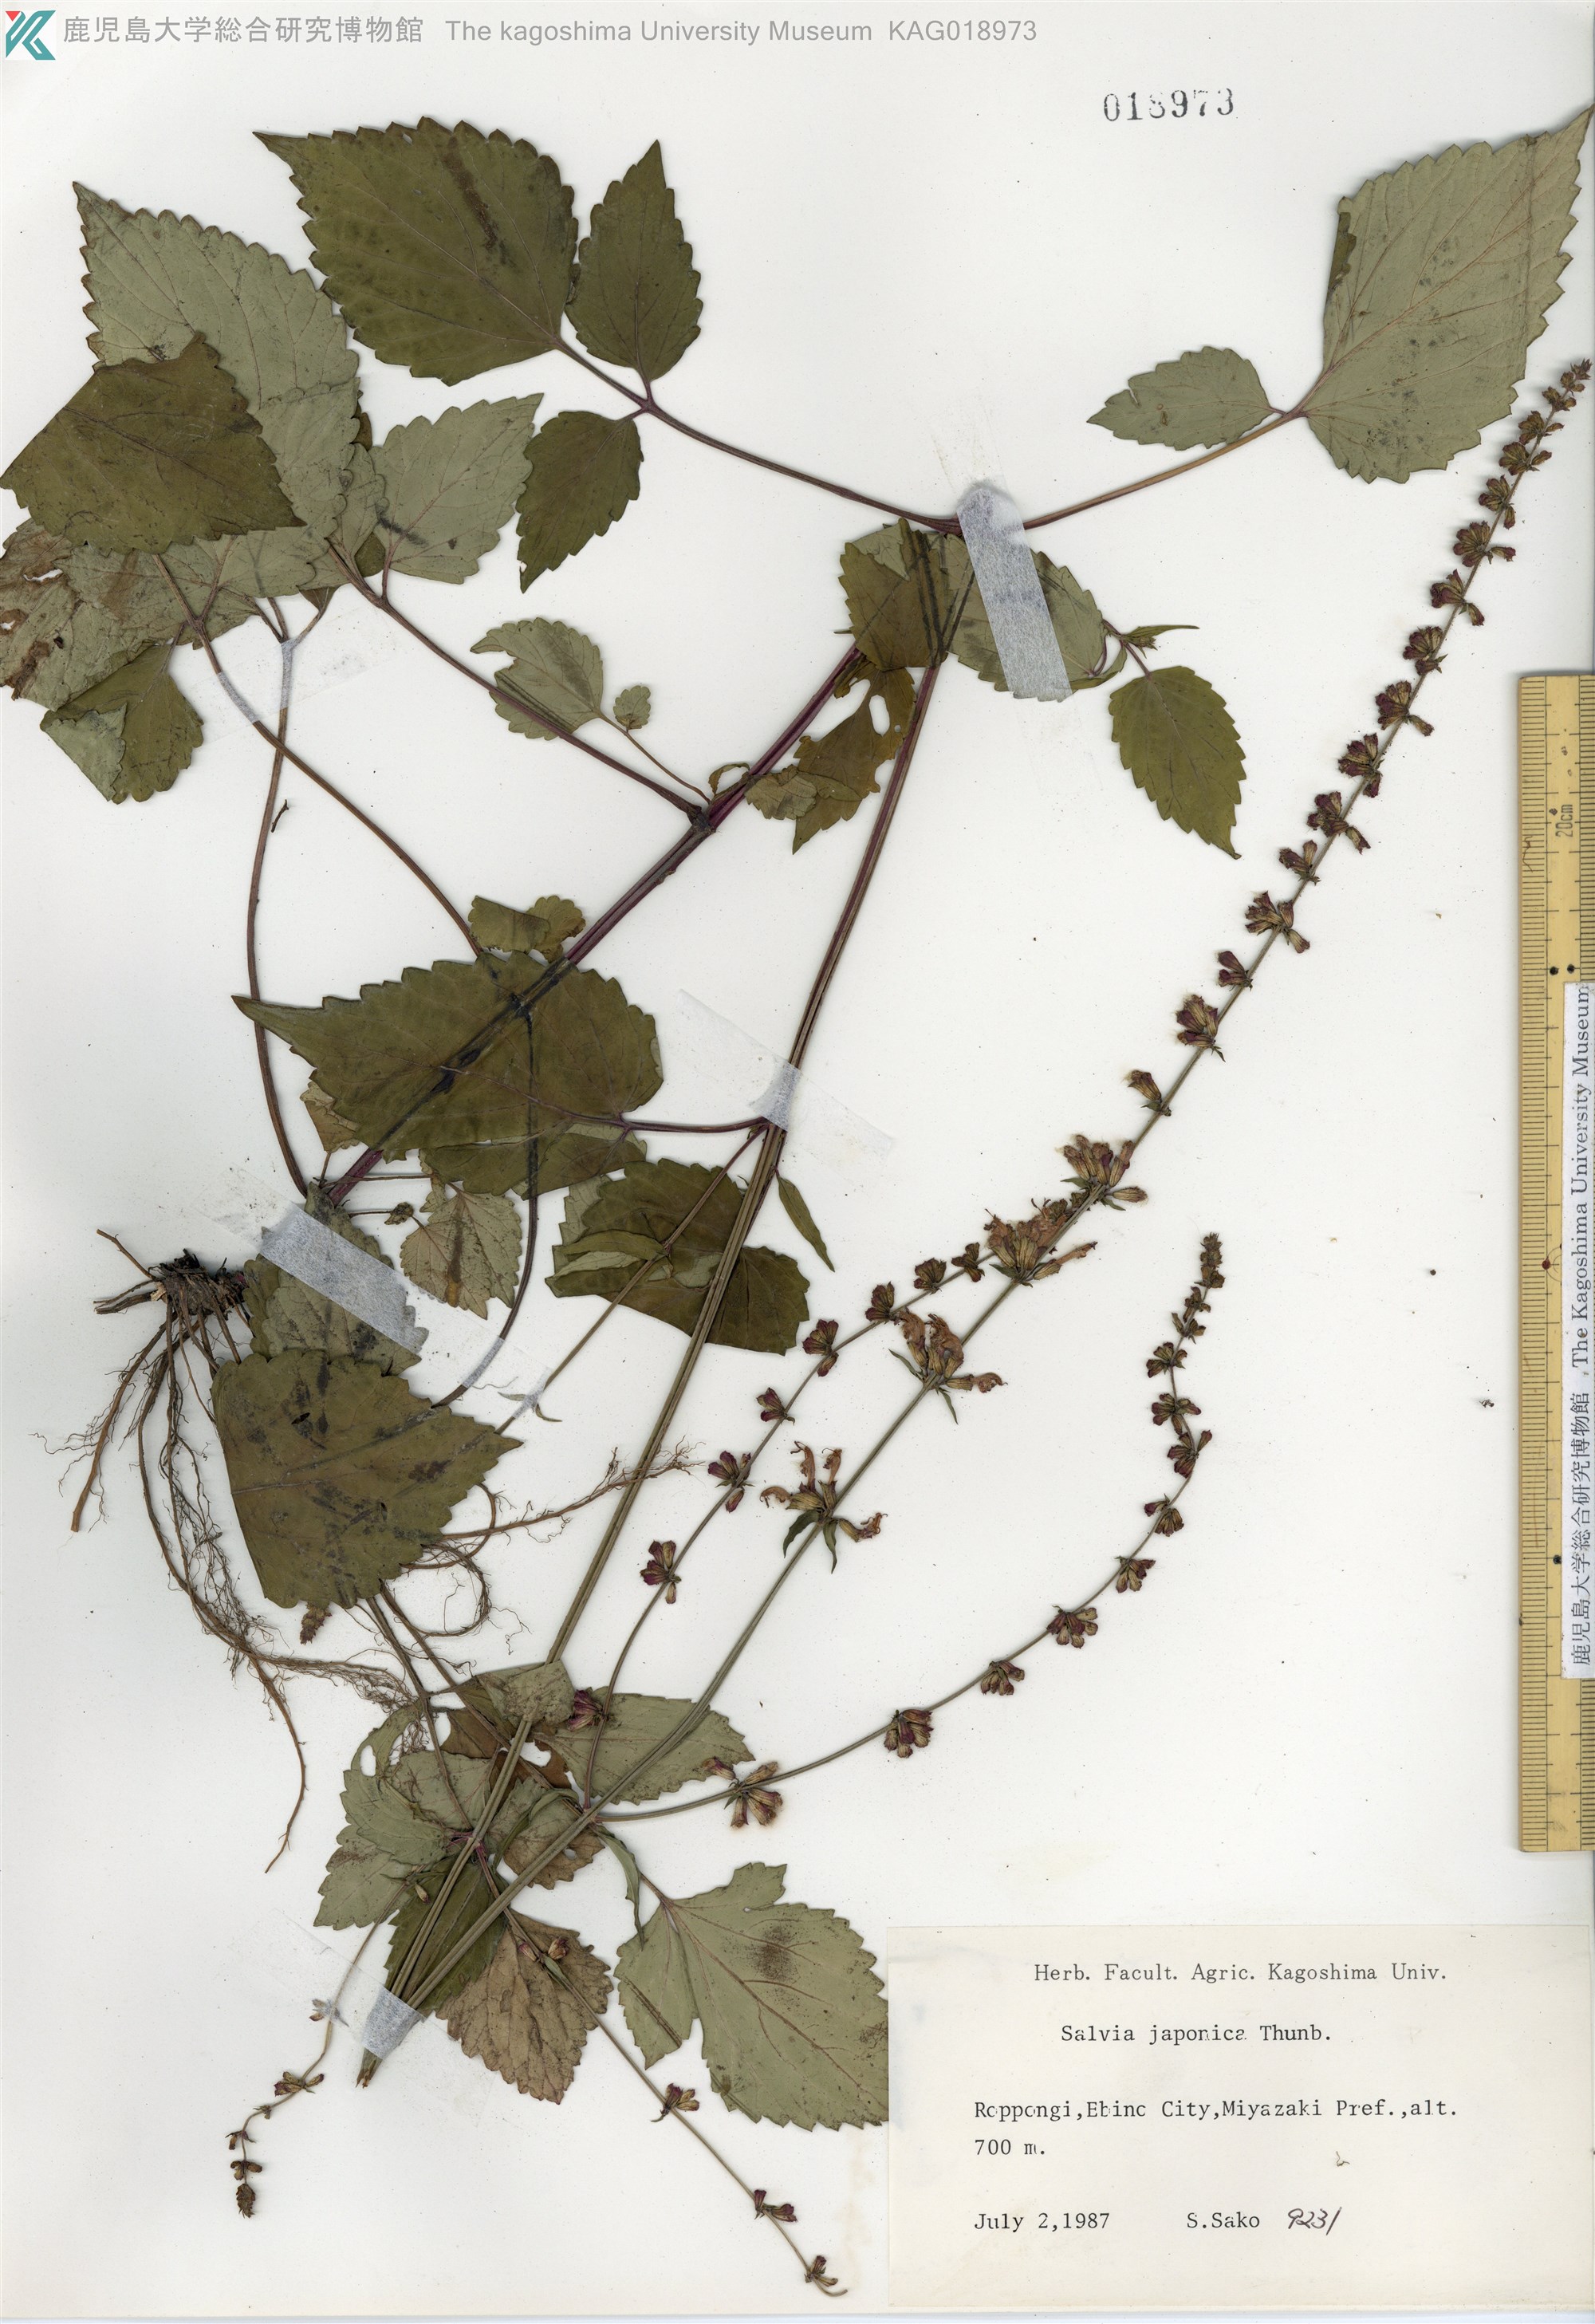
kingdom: Plantae
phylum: Tracheophyta
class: Magnoliopsida
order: Lamiales
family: Lamiaceae
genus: Salvia
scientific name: Salvia japonica
